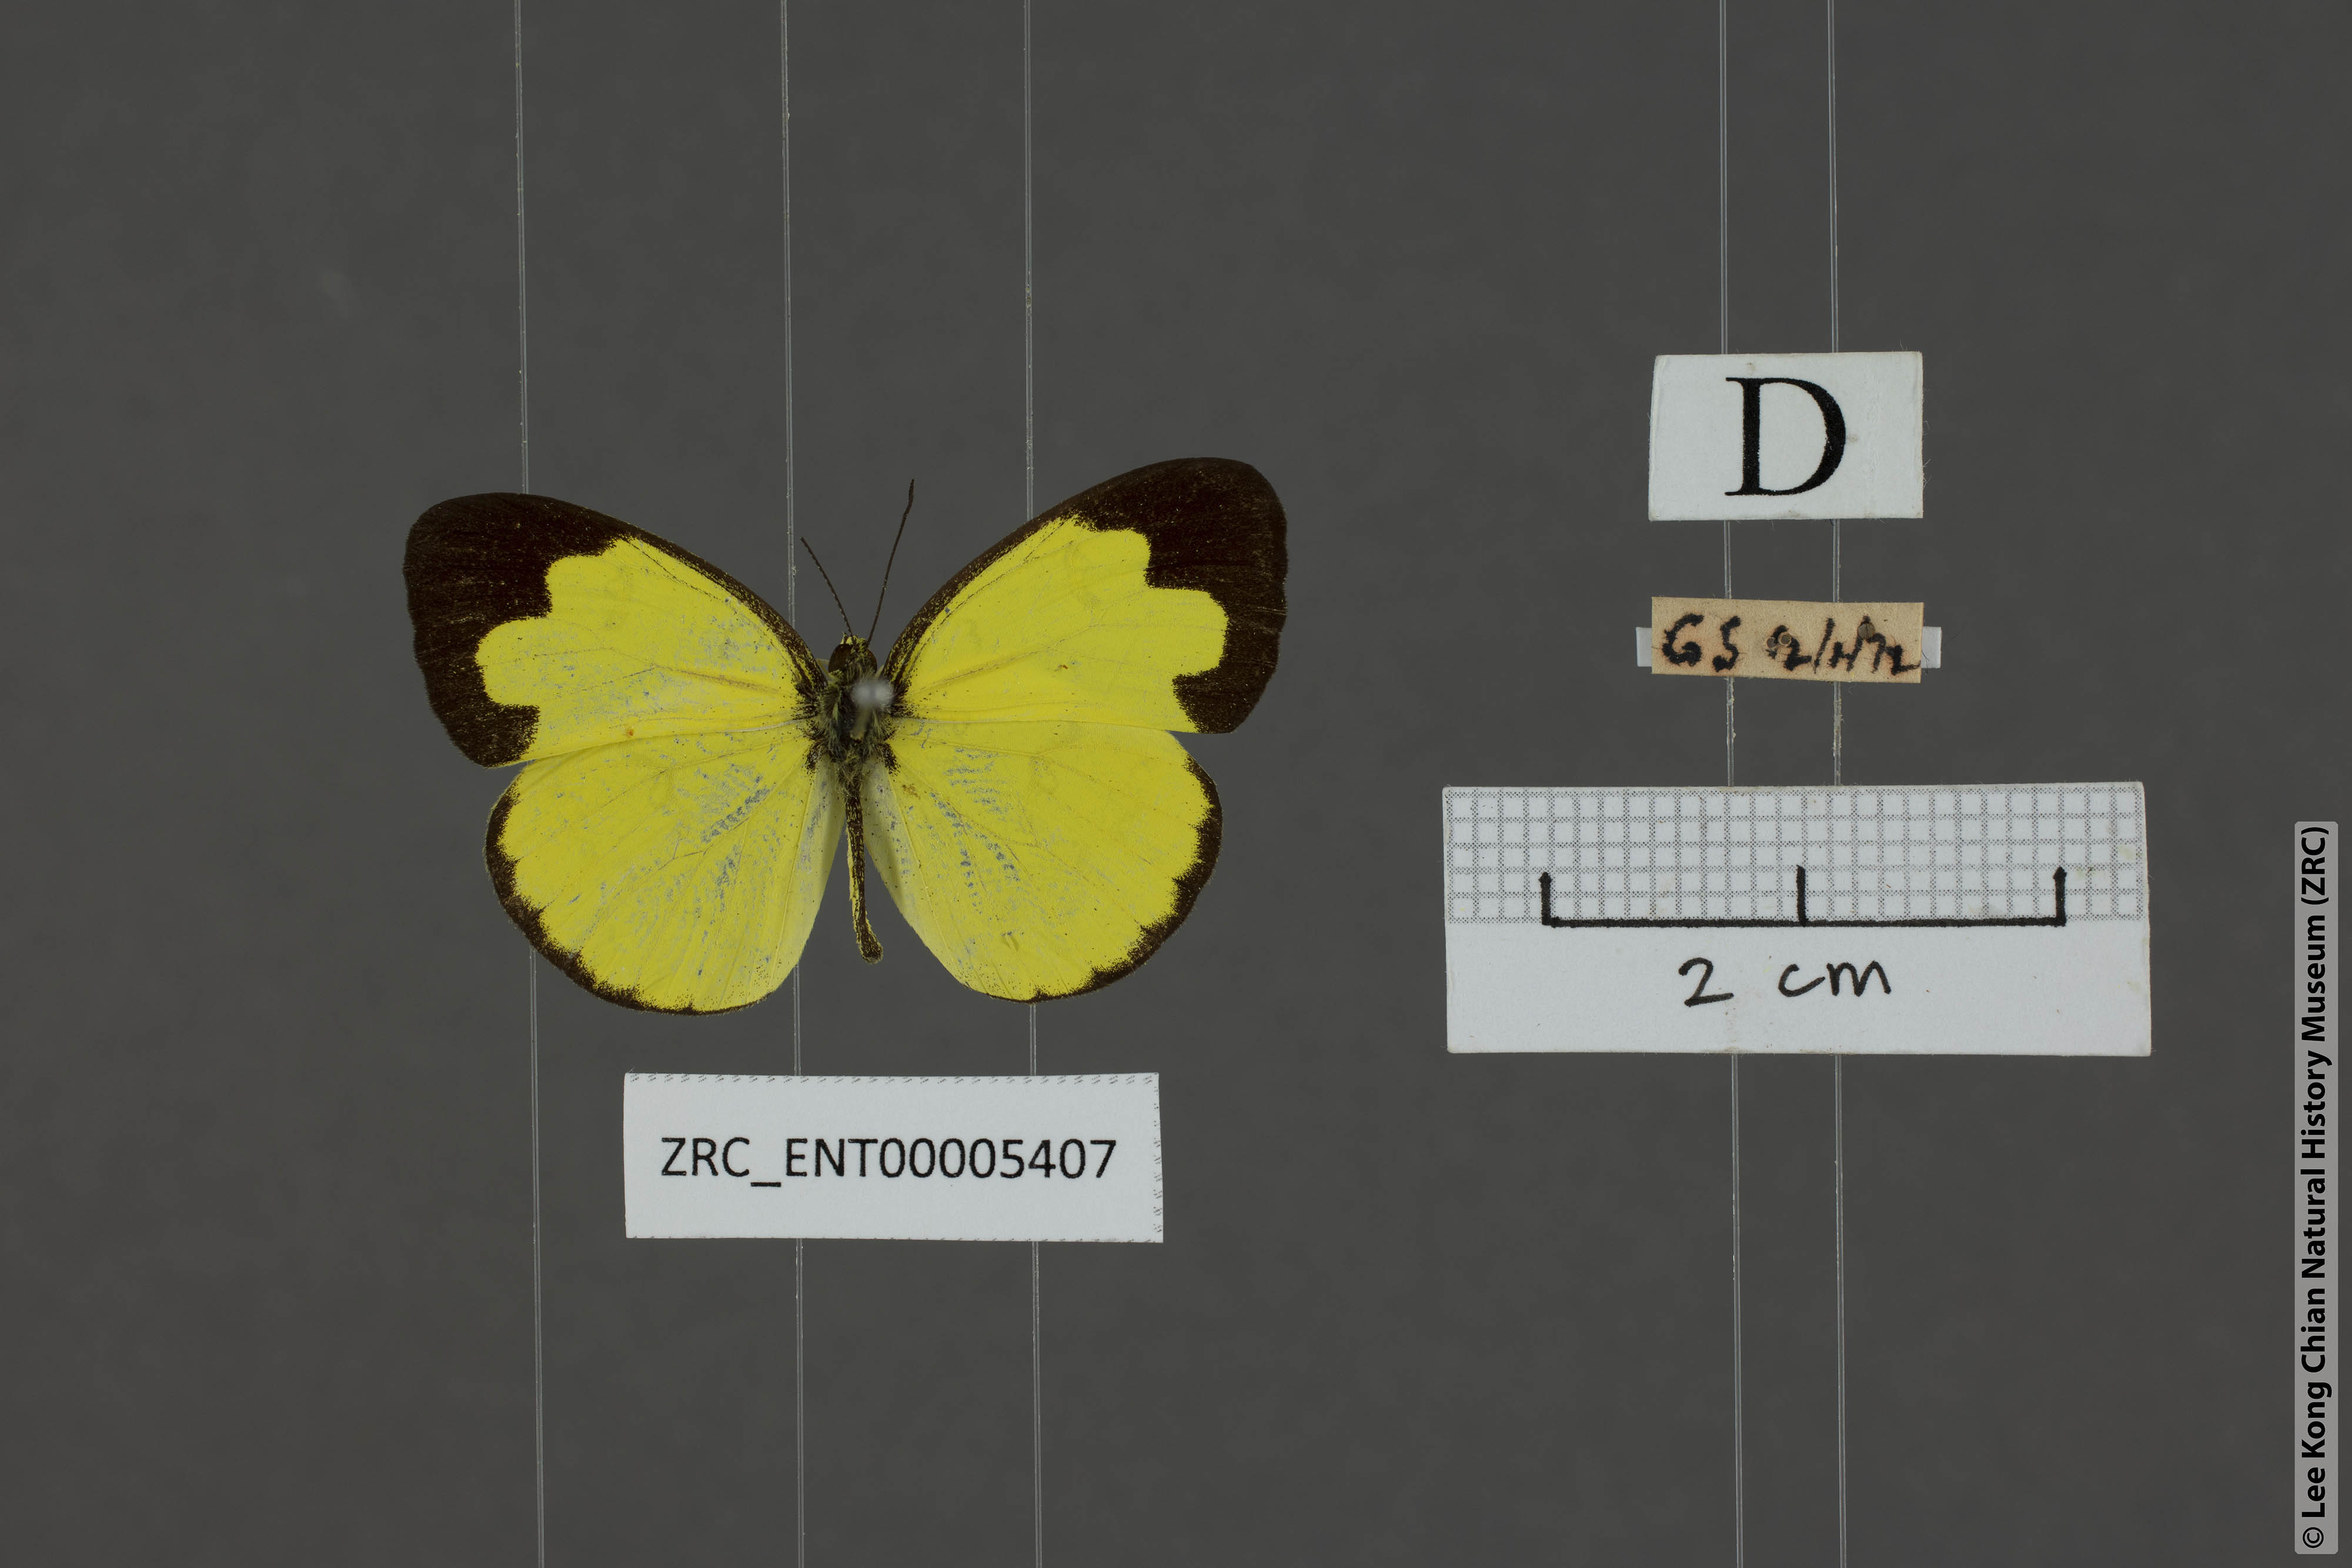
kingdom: Animalia
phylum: Arthropoda
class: Insecta
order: Lepidoptera
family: Pieridae
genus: Eurema
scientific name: Eurema andersoni
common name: One-spot yellow grass
